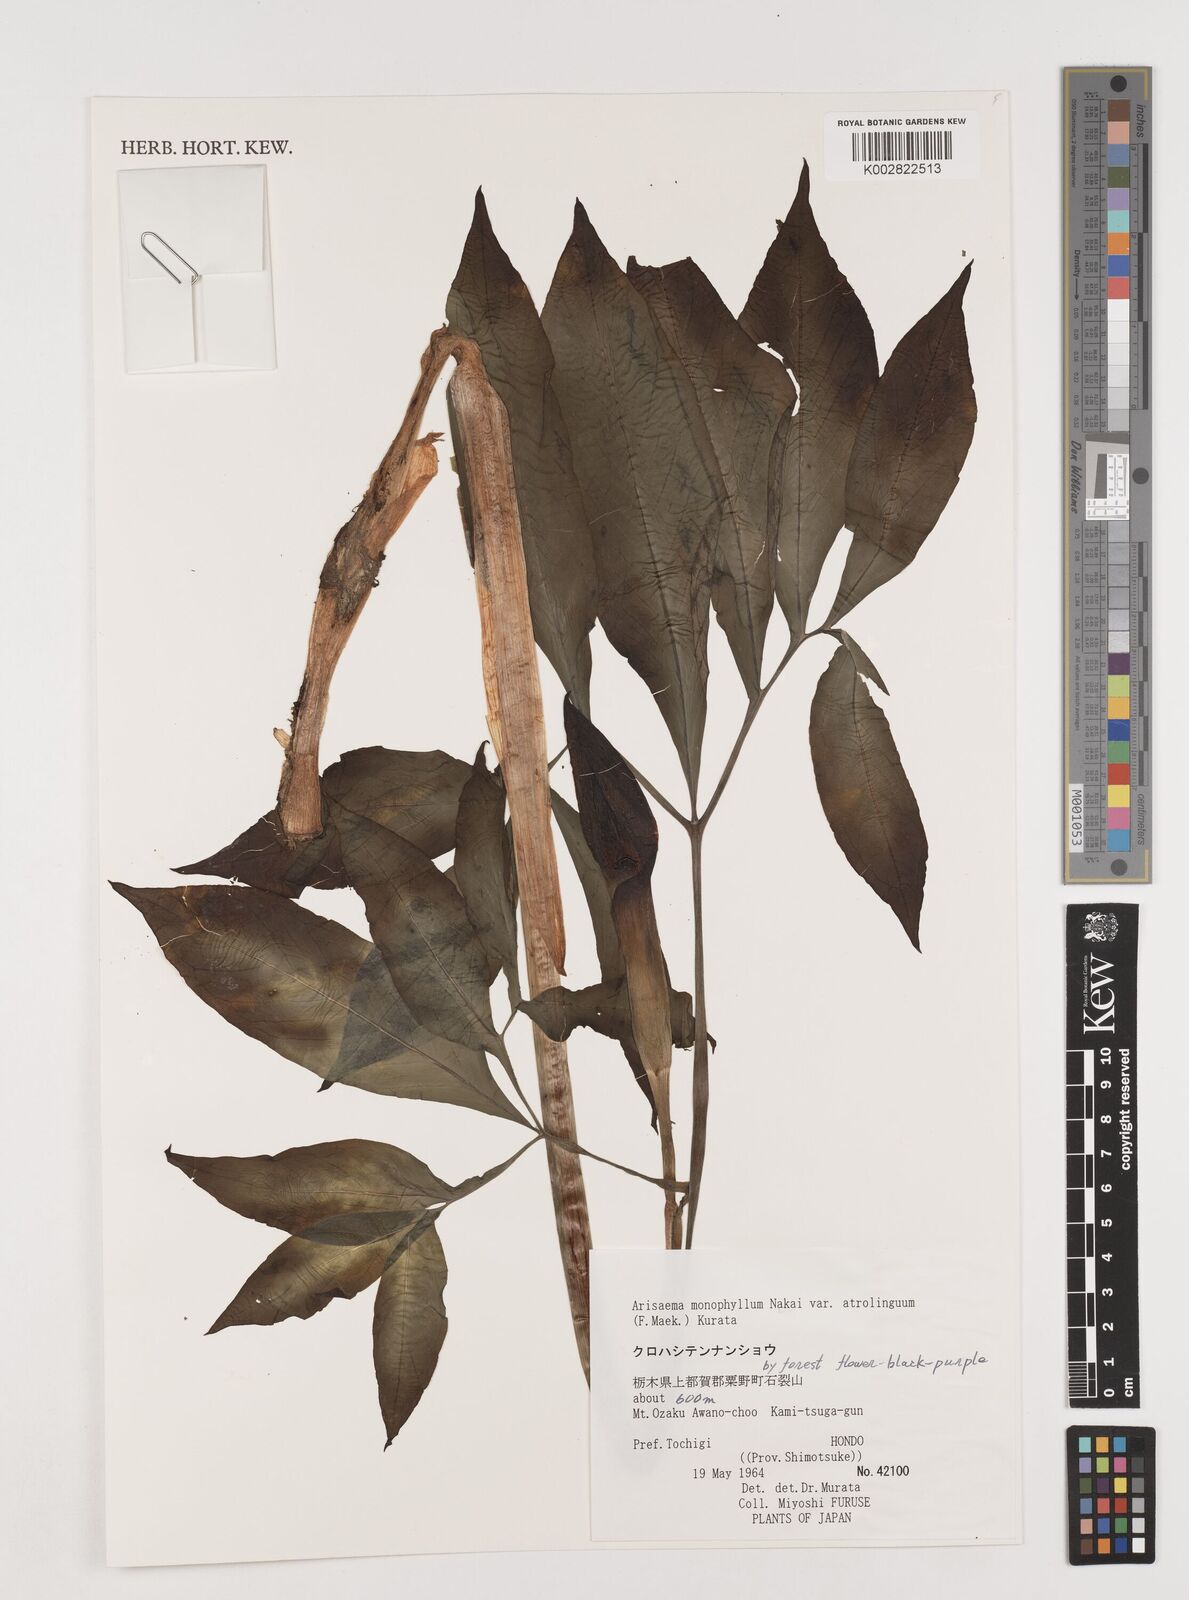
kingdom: Plantae
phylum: Tracheophyta
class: Liliopsida
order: Alismatales
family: Araceae
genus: Arisaema
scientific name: Arisaema monophyllum
